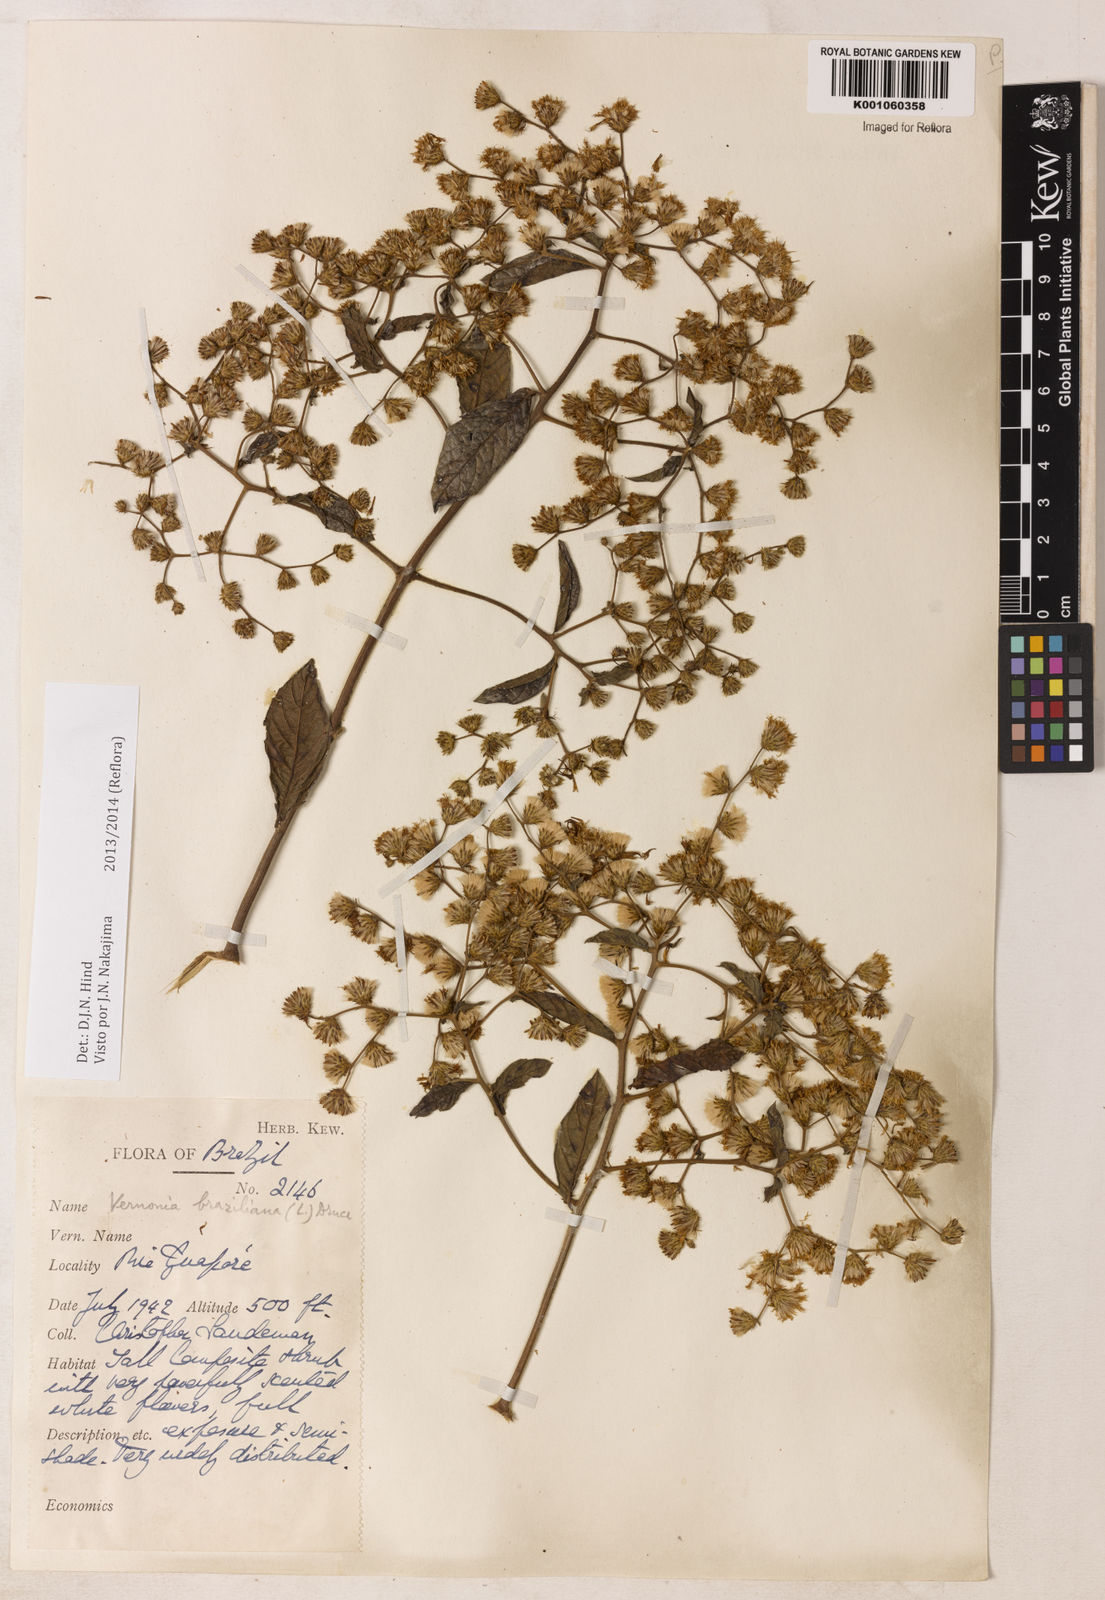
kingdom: Plantae
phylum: Tracheophyta
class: Magnoliopsida
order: Asterales
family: Asteraceae
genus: Vernonanthura
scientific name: Vernonanthura brasiliana
